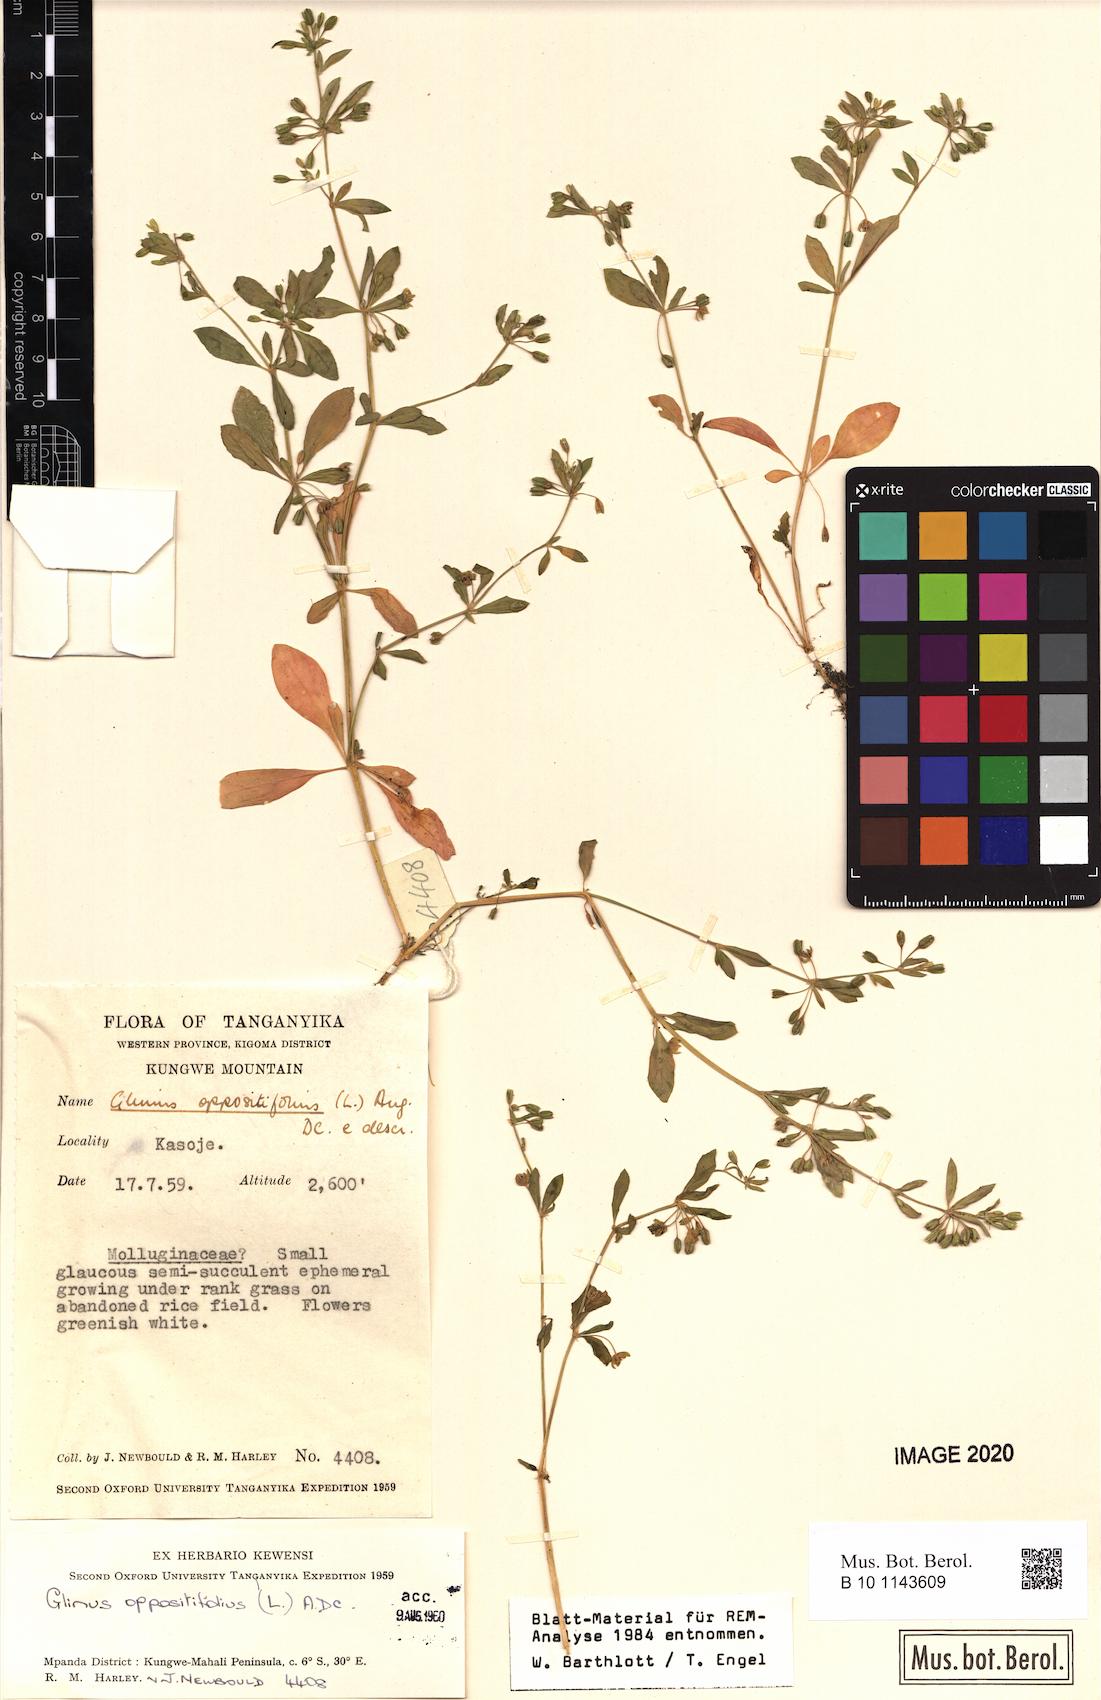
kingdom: Plantae
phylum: Tracheophyta
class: Magnoliopsida
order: Caryophyllales
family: Molluginaceae
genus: Glinus
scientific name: Glinus oppositifolius
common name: Slender carpetweed
